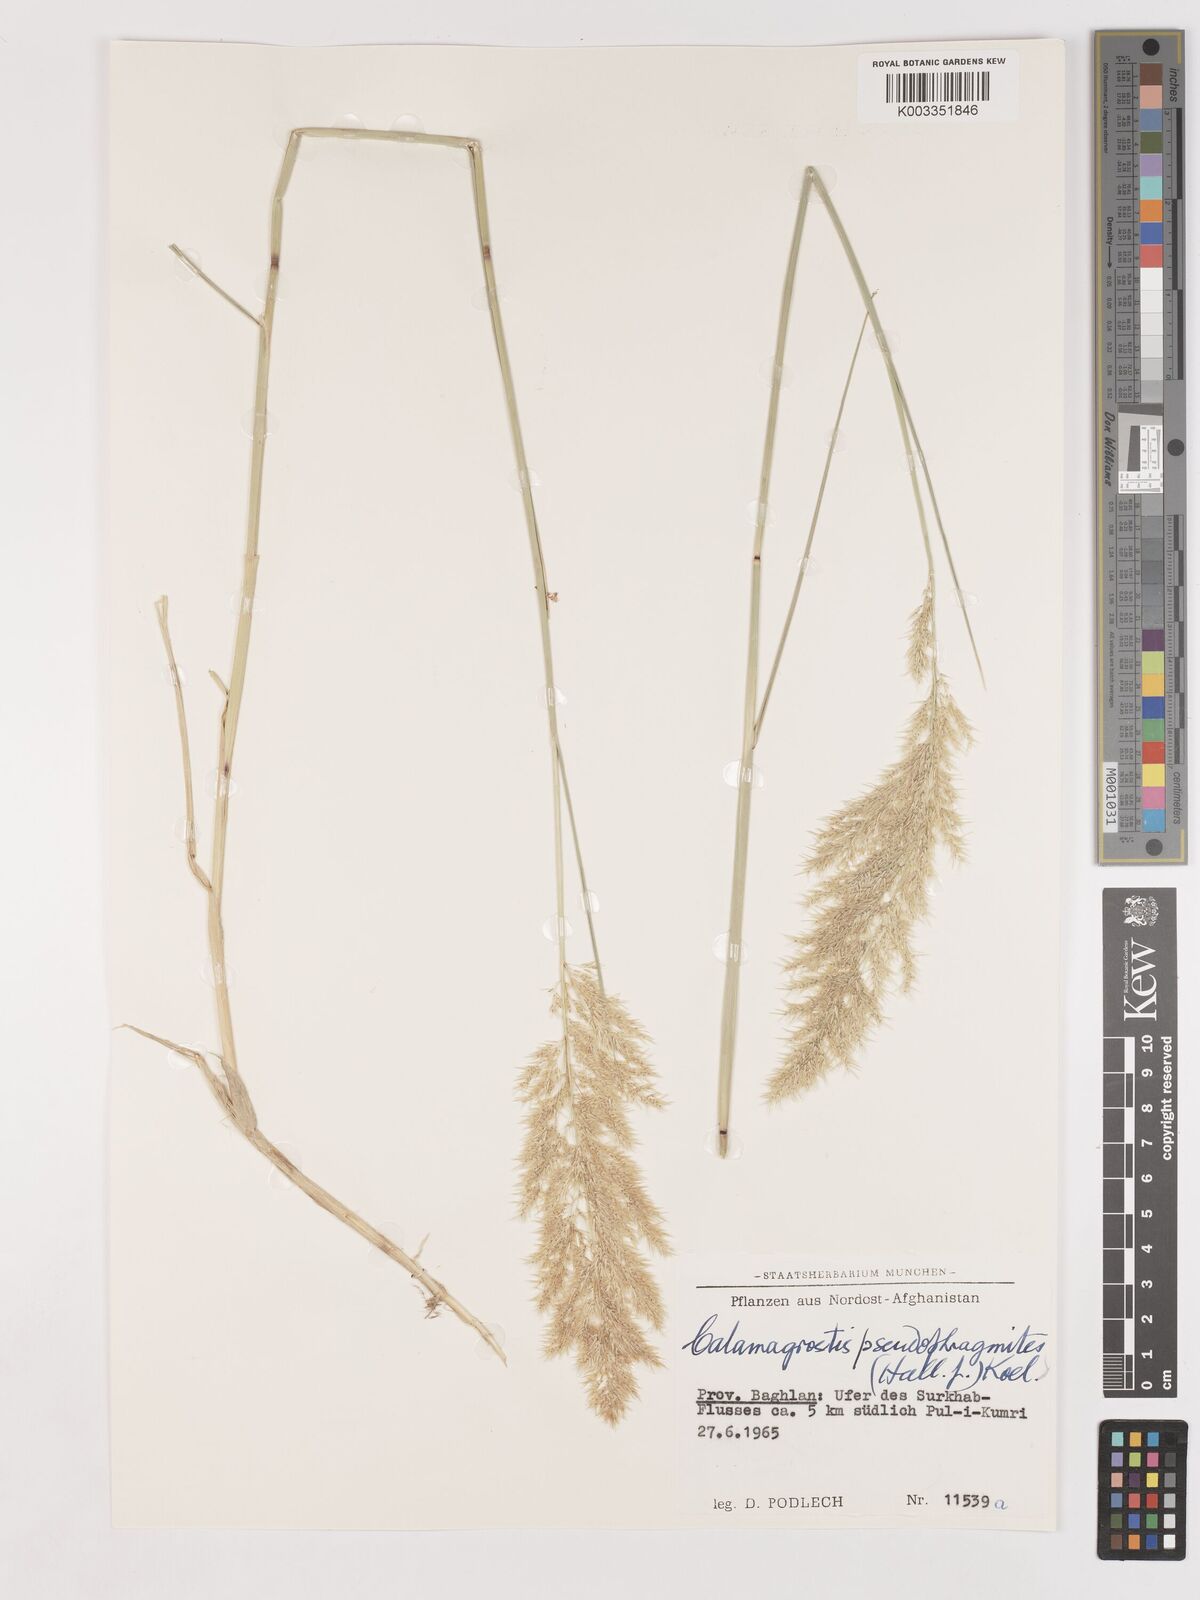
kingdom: Plantae
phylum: Tracheophyta
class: Liliopsida
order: Poales
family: Poaceae
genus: Calamagrostis
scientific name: Calamagrostis purpurea
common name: Scandinavian small-reed
